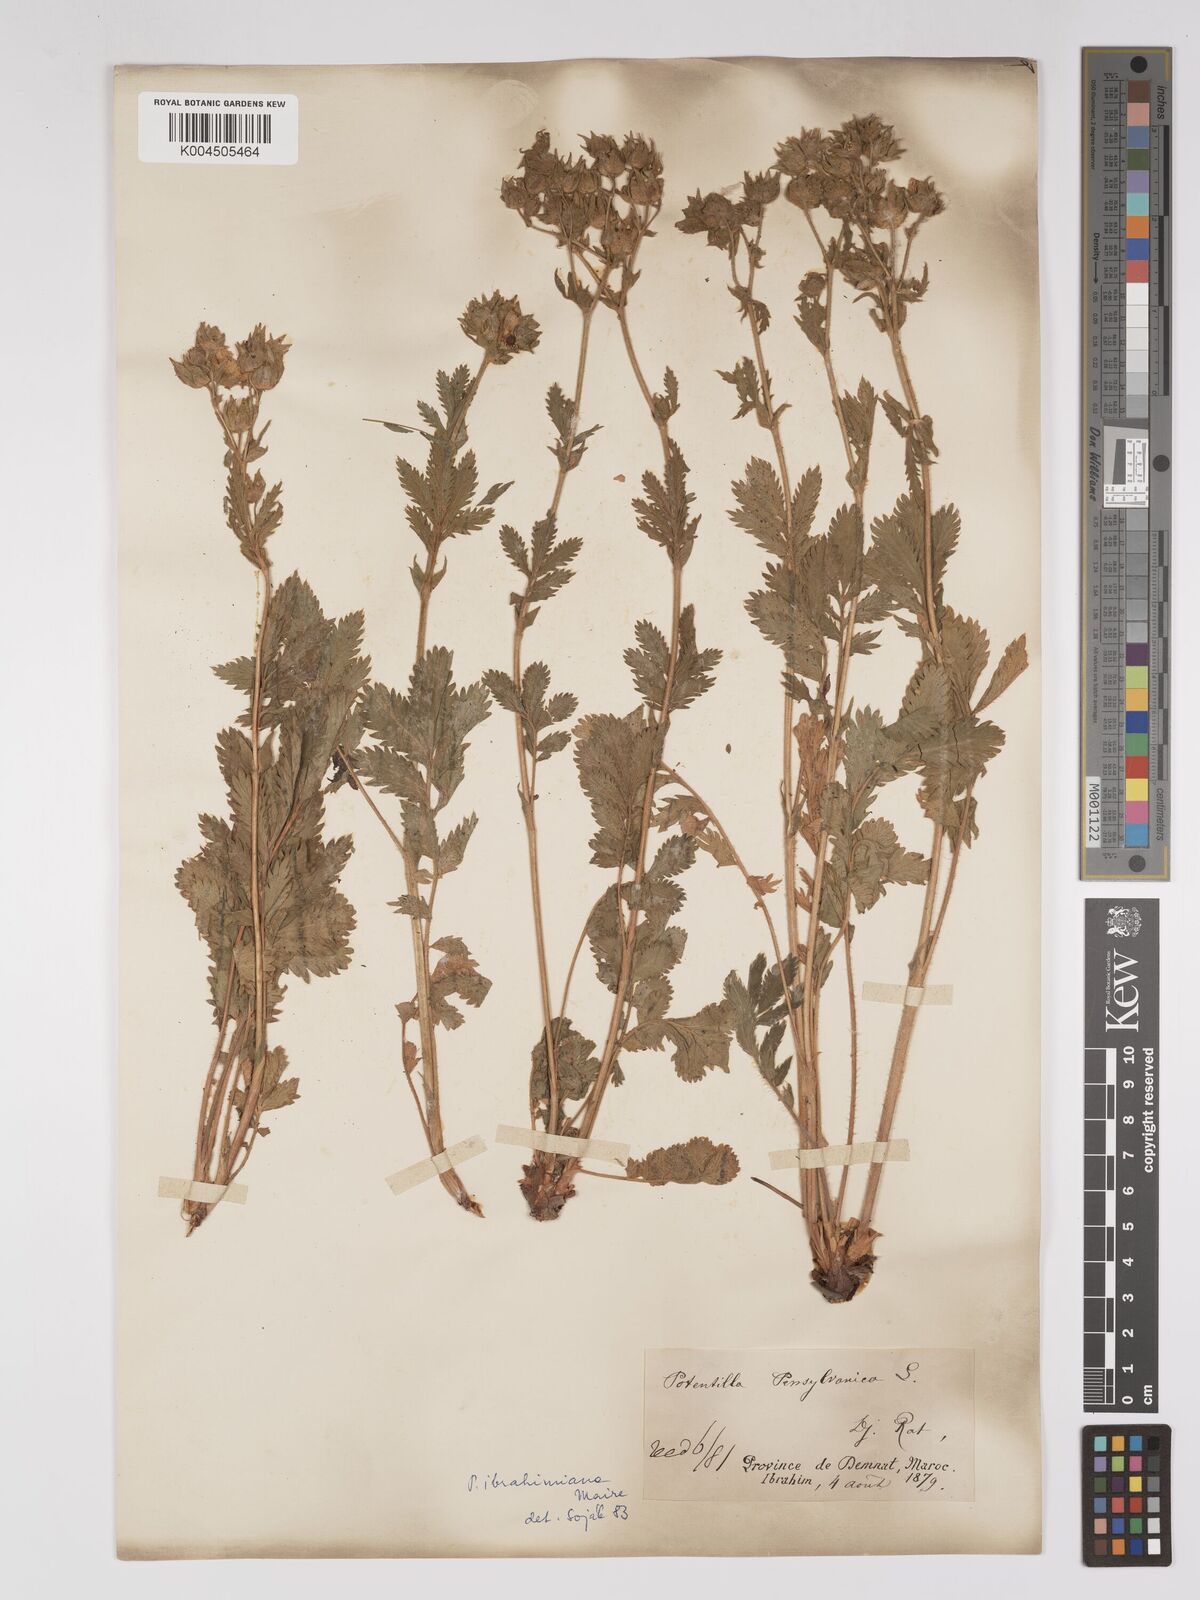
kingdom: Plantae
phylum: Tracheophyta
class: Magnoliopsida
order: Rosales
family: Rosaceae
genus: Potentilla
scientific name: Potentilla pensylvanica
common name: Pennsylvania cinquefoil
